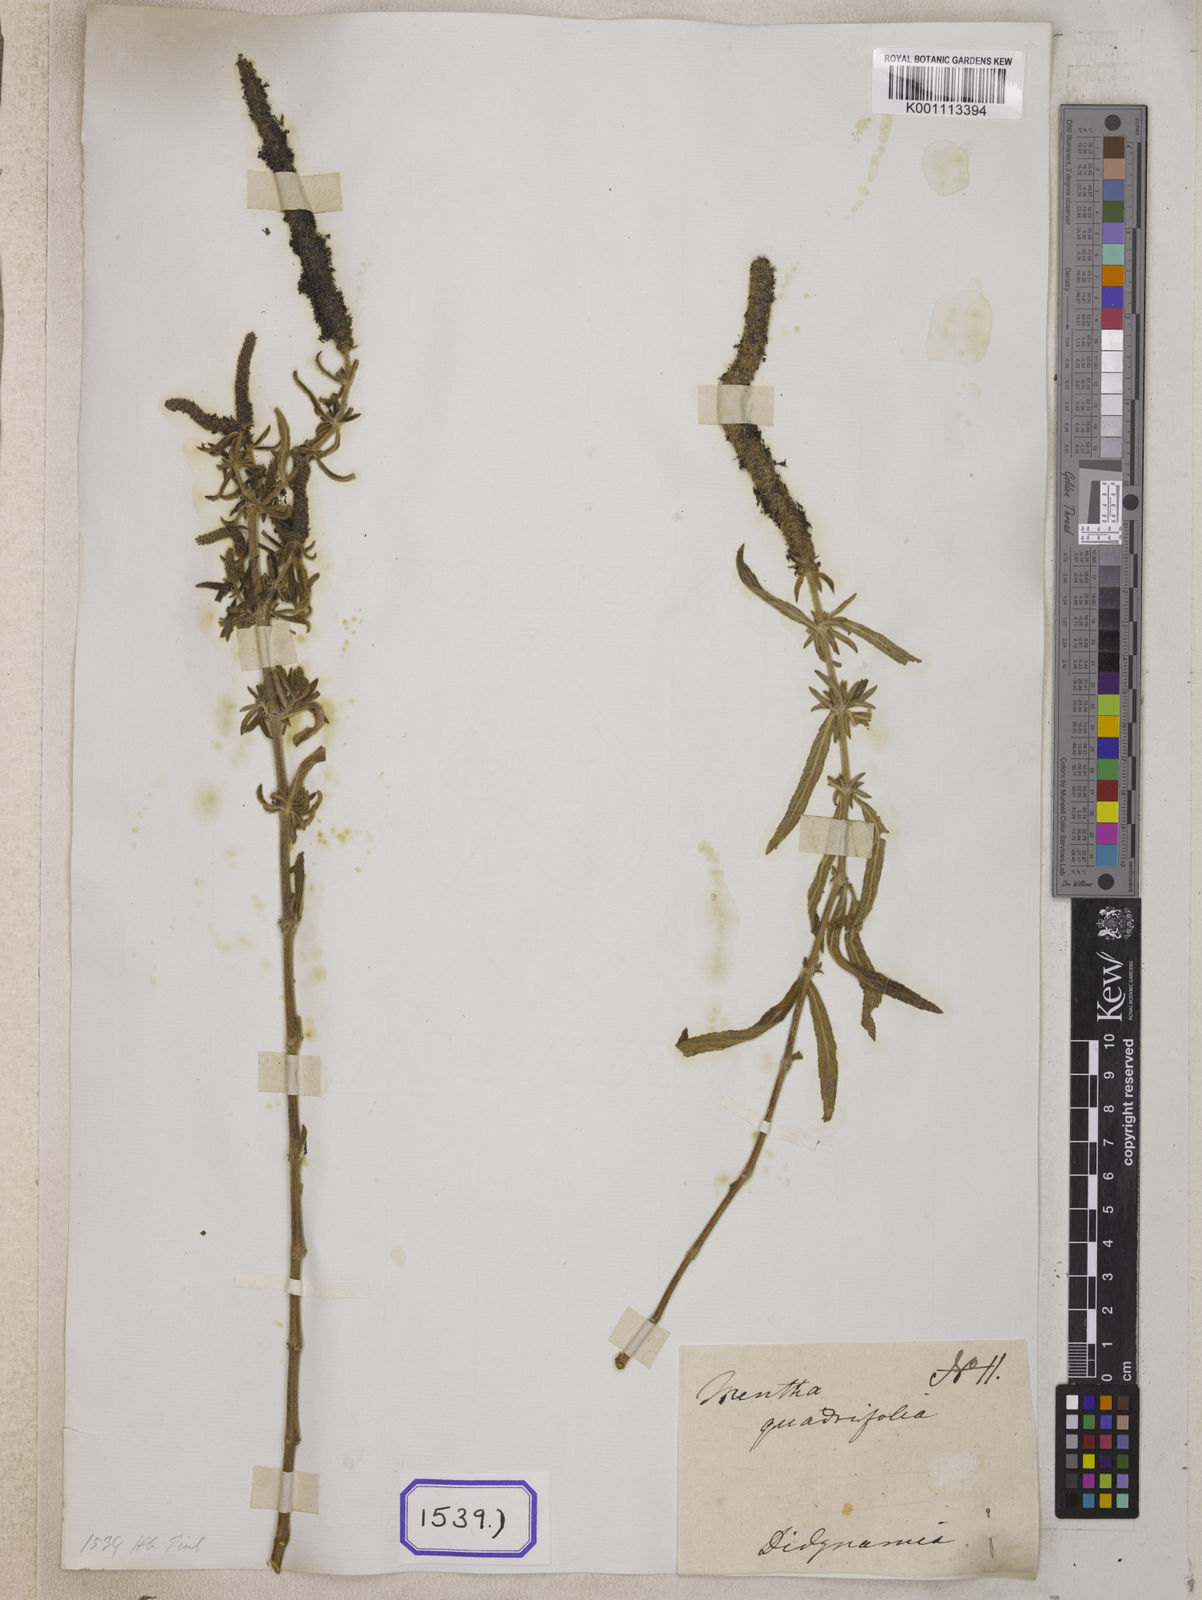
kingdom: Plantae
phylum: Tracheophyta
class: Magnoliopsida
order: Lamiales
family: Lamiaceae
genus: Pogostemon
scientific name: Pogostemon quadrifolius
